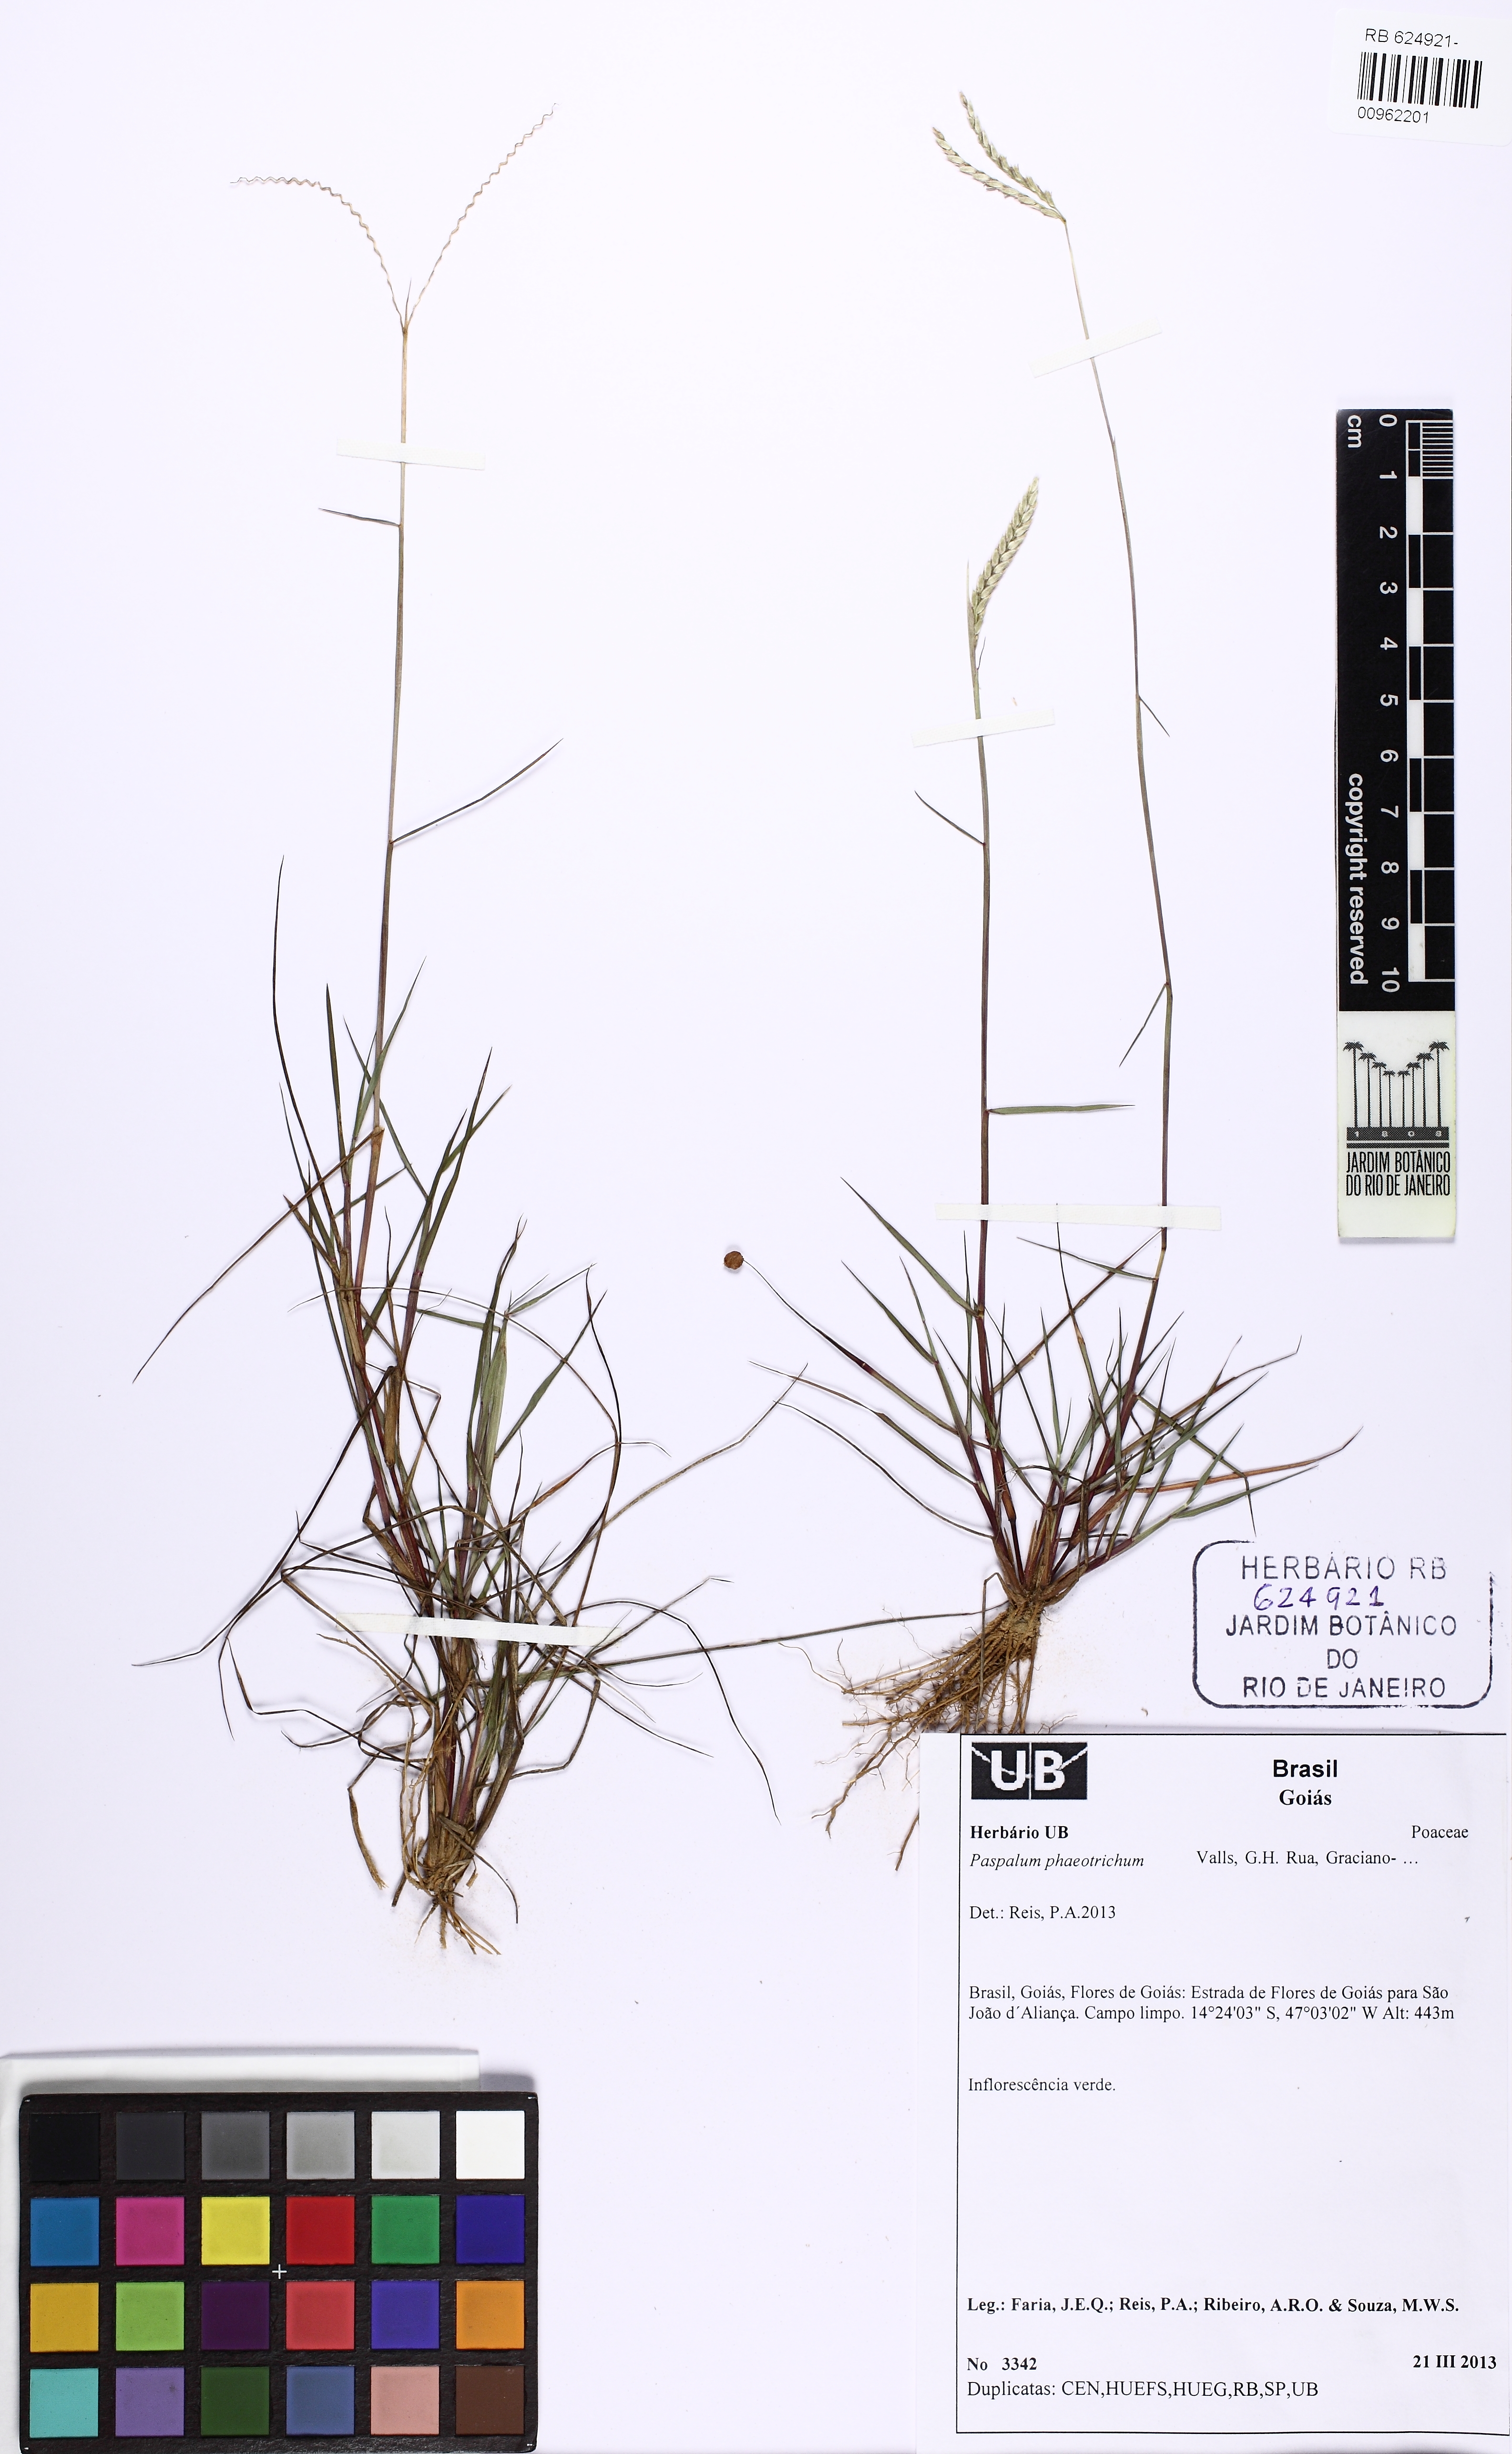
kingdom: Plantae
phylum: Tracheophyta
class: Liliopsida
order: Poales
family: Poaceae
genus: Paspalum
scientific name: Paspalum phaeotrichum
